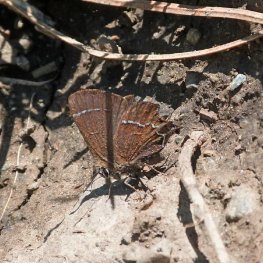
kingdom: Animalia
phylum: Arthropoda
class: Insecta
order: Lepidoptera
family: Lycaenidae
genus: Mitoura
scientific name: Mitoura spinetorum
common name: Thicket Hairstreak
